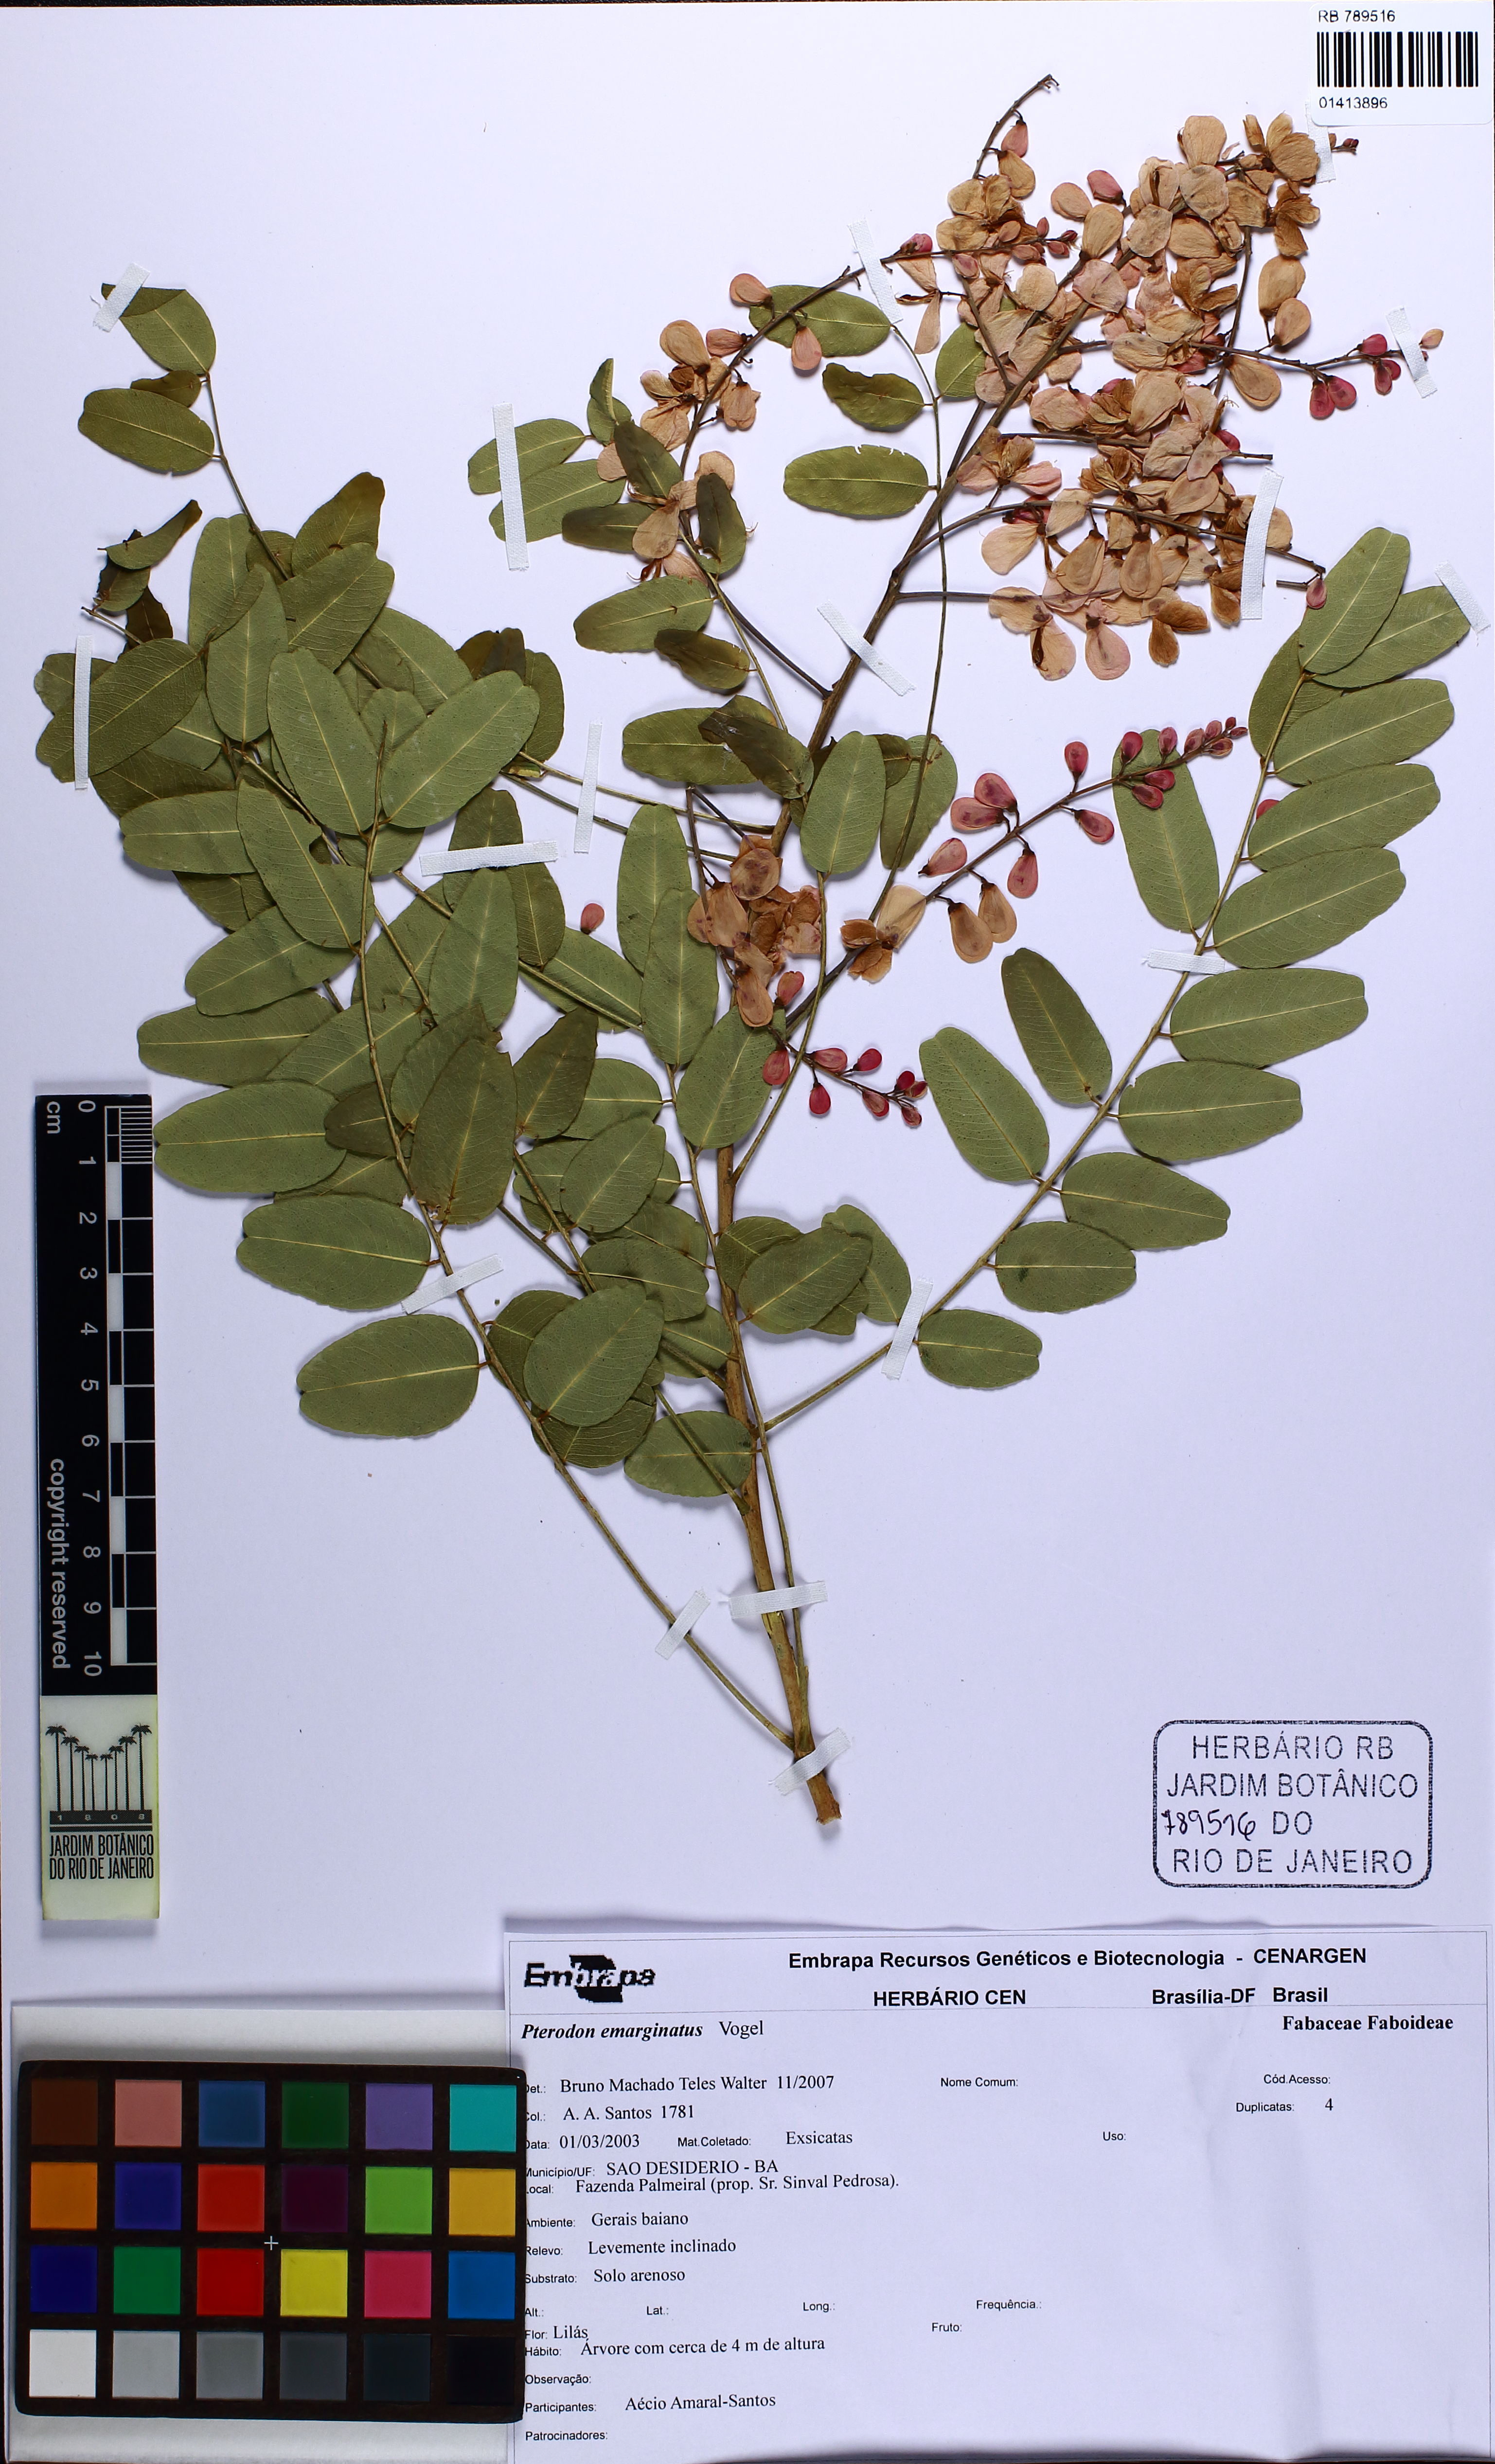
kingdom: Plantae
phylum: Tracheophyta
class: Magnoliopsida
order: Fabales
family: Fabaceae
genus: Pterodon
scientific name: Pterodon emarginatus
